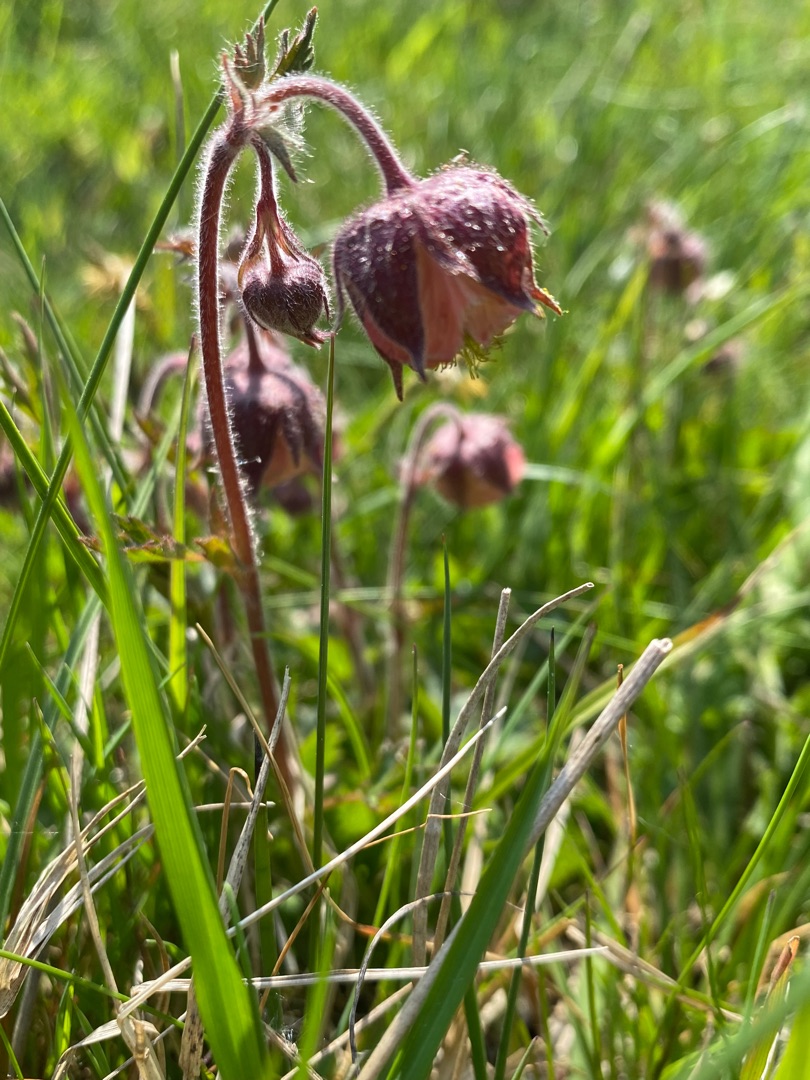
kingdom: Plantae
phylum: Tracheophyta
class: Magnoliopsida
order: Rosales
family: Rosaceae
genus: Geum
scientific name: Geum rivale
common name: Eng-nellikerod
